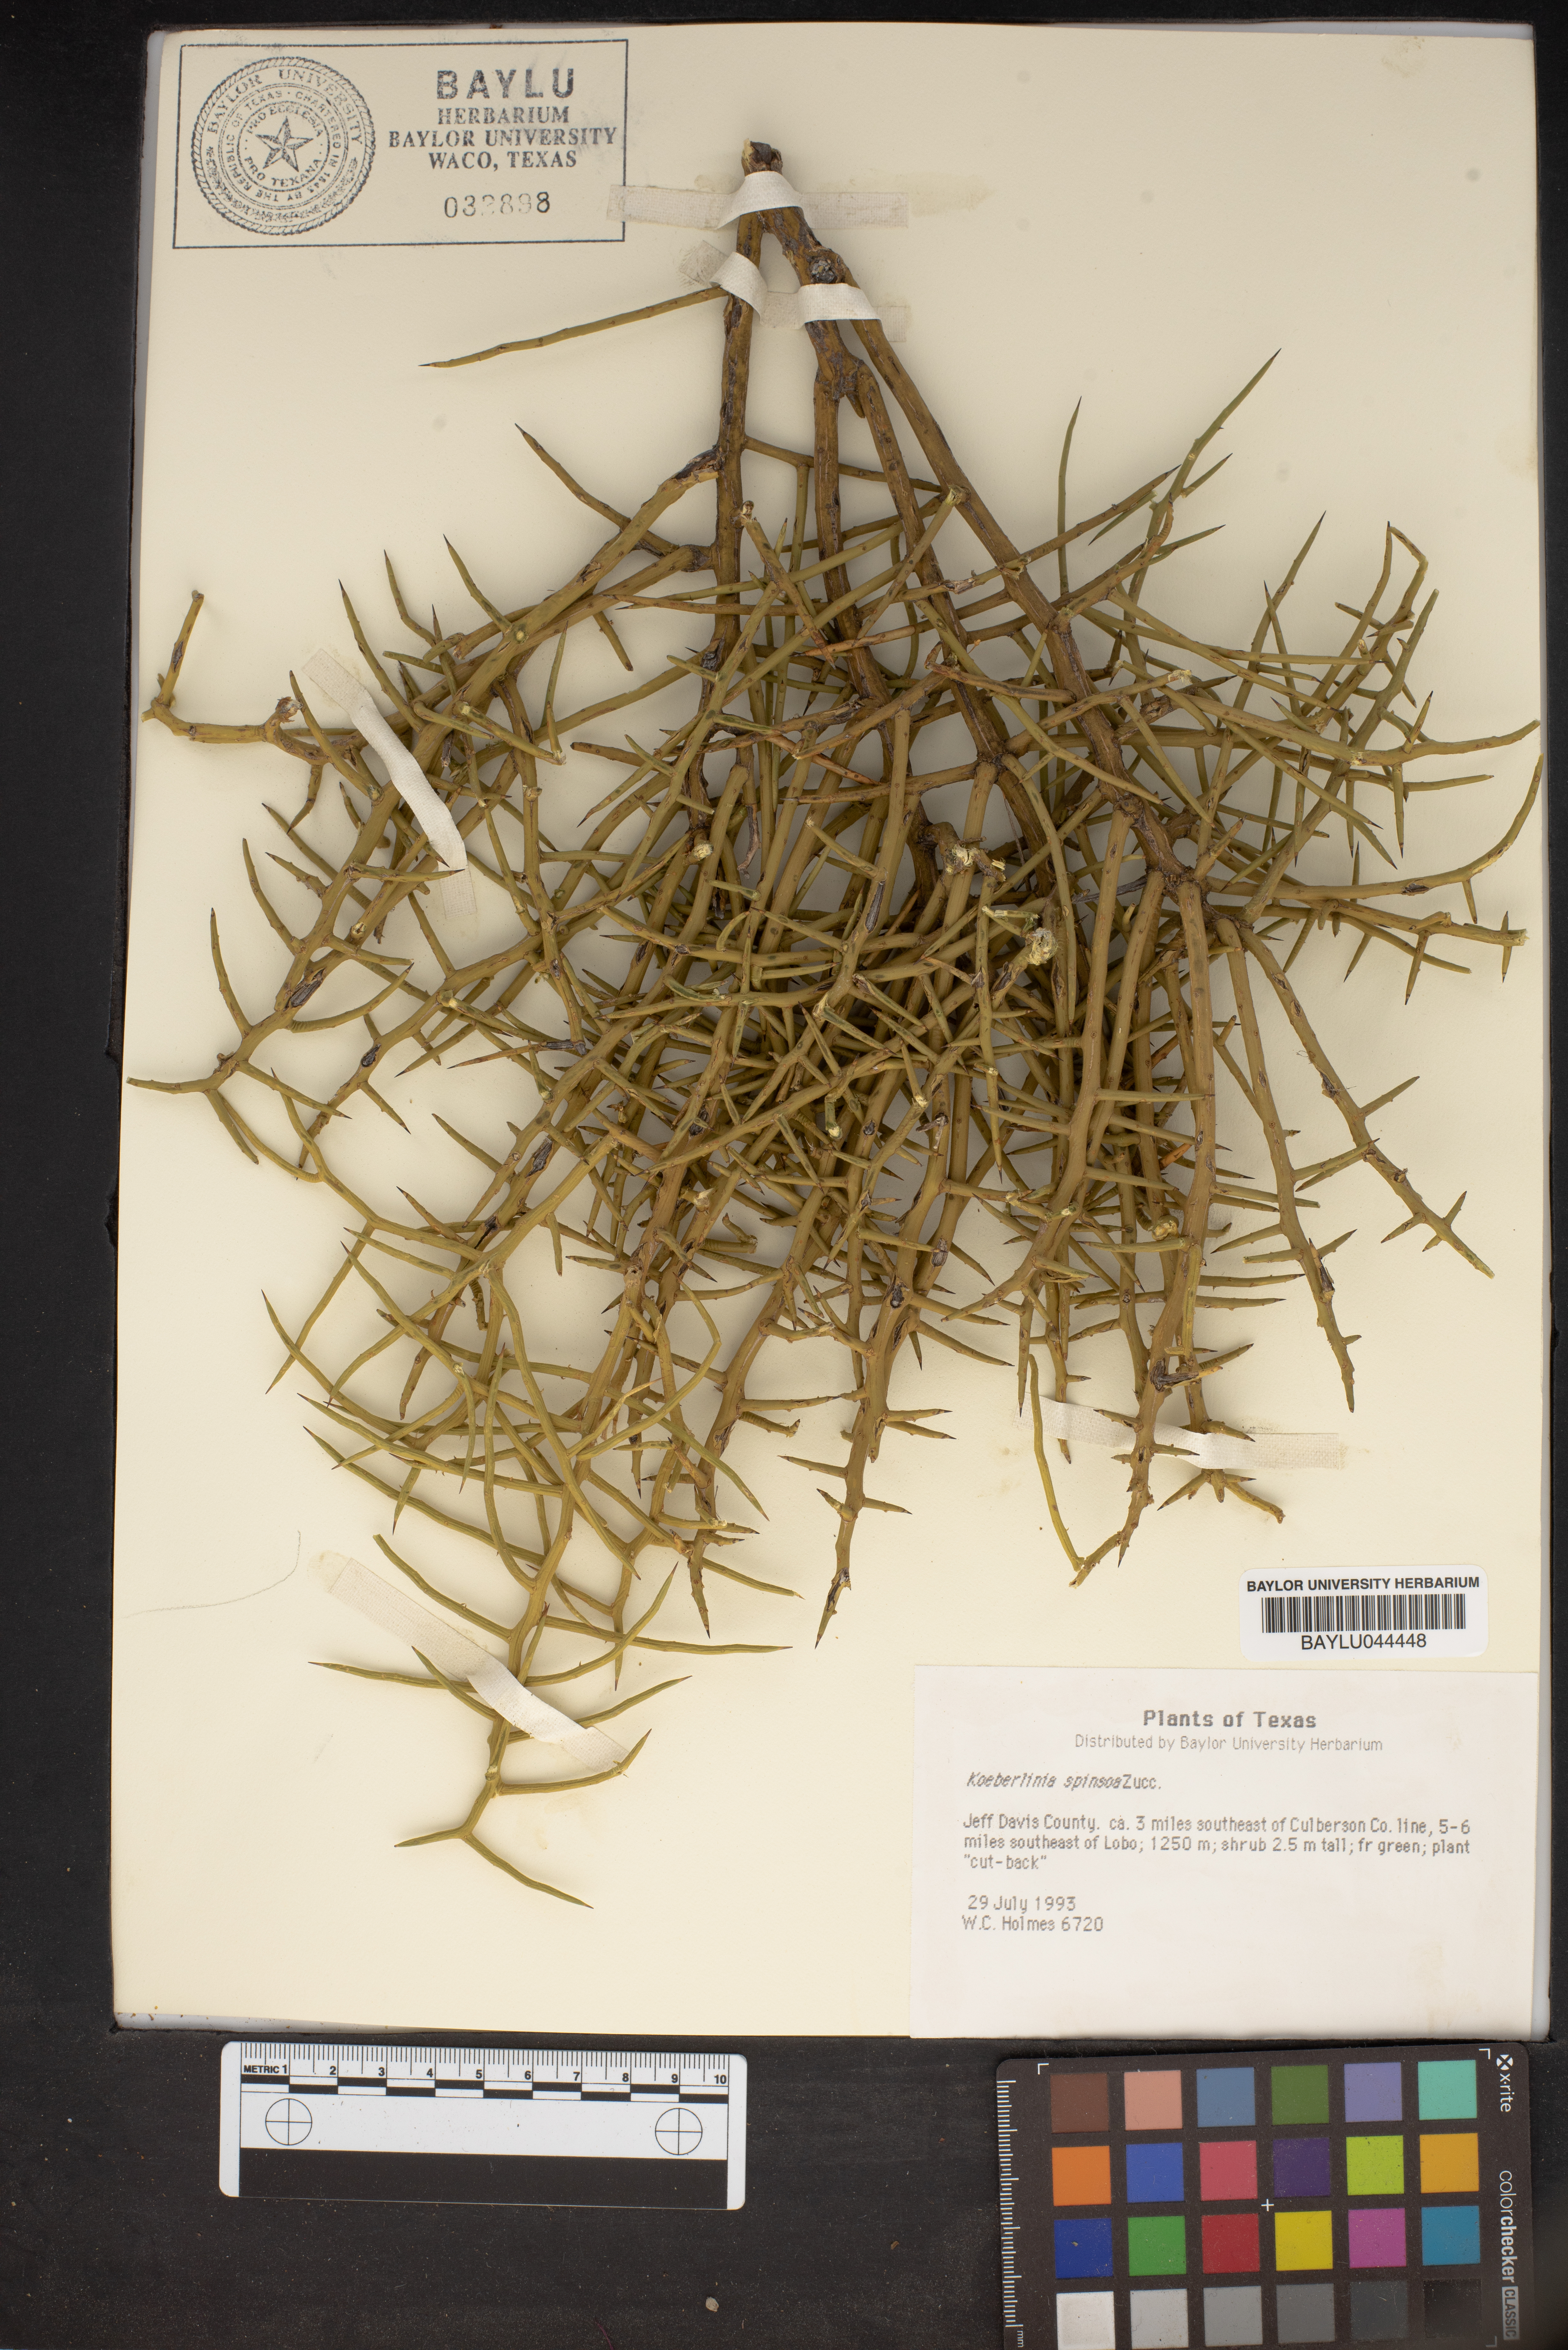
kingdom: Plantae
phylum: Tracheophyta
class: Magnoliopsida
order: Brassicales
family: Koeberliniaceae
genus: Koeberlinia
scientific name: Koeberlinia spinosa
